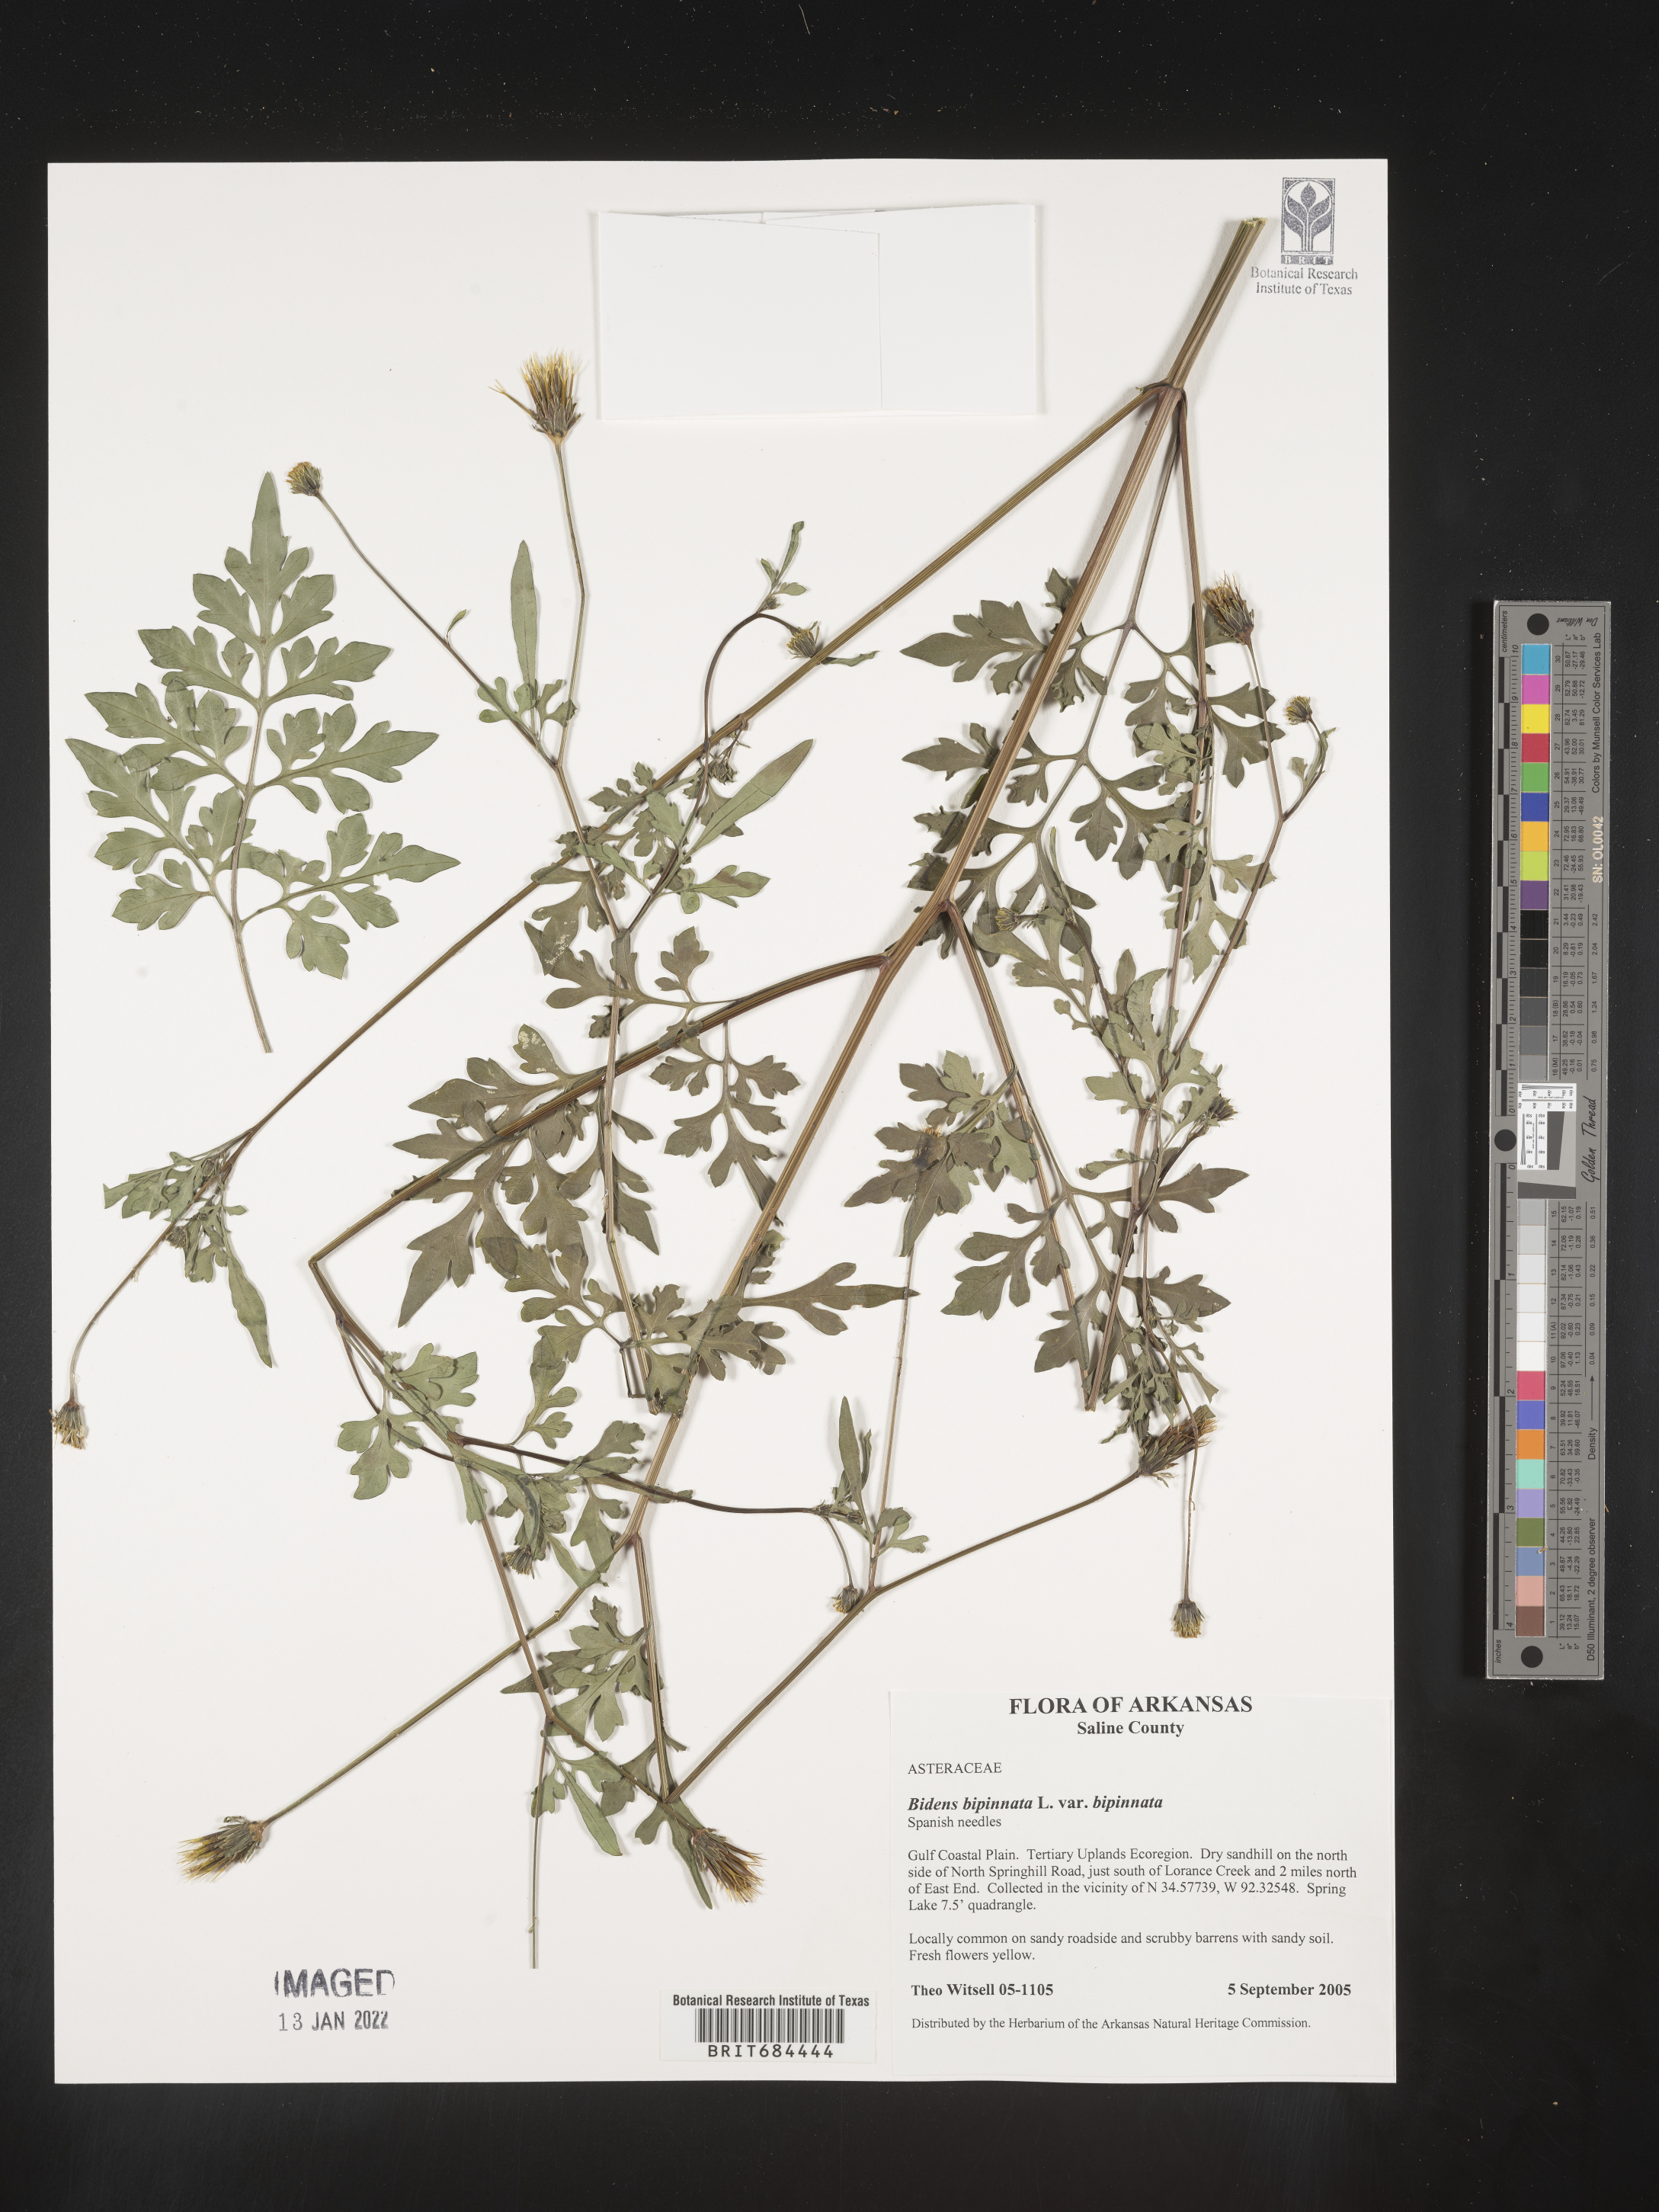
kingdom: Plantae
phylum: Tracheophyta
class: Magnoliopsida
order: Asterales
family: Asteraceae
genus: Bidens
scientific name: Bidens bipinnata
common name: Spanish-needles
